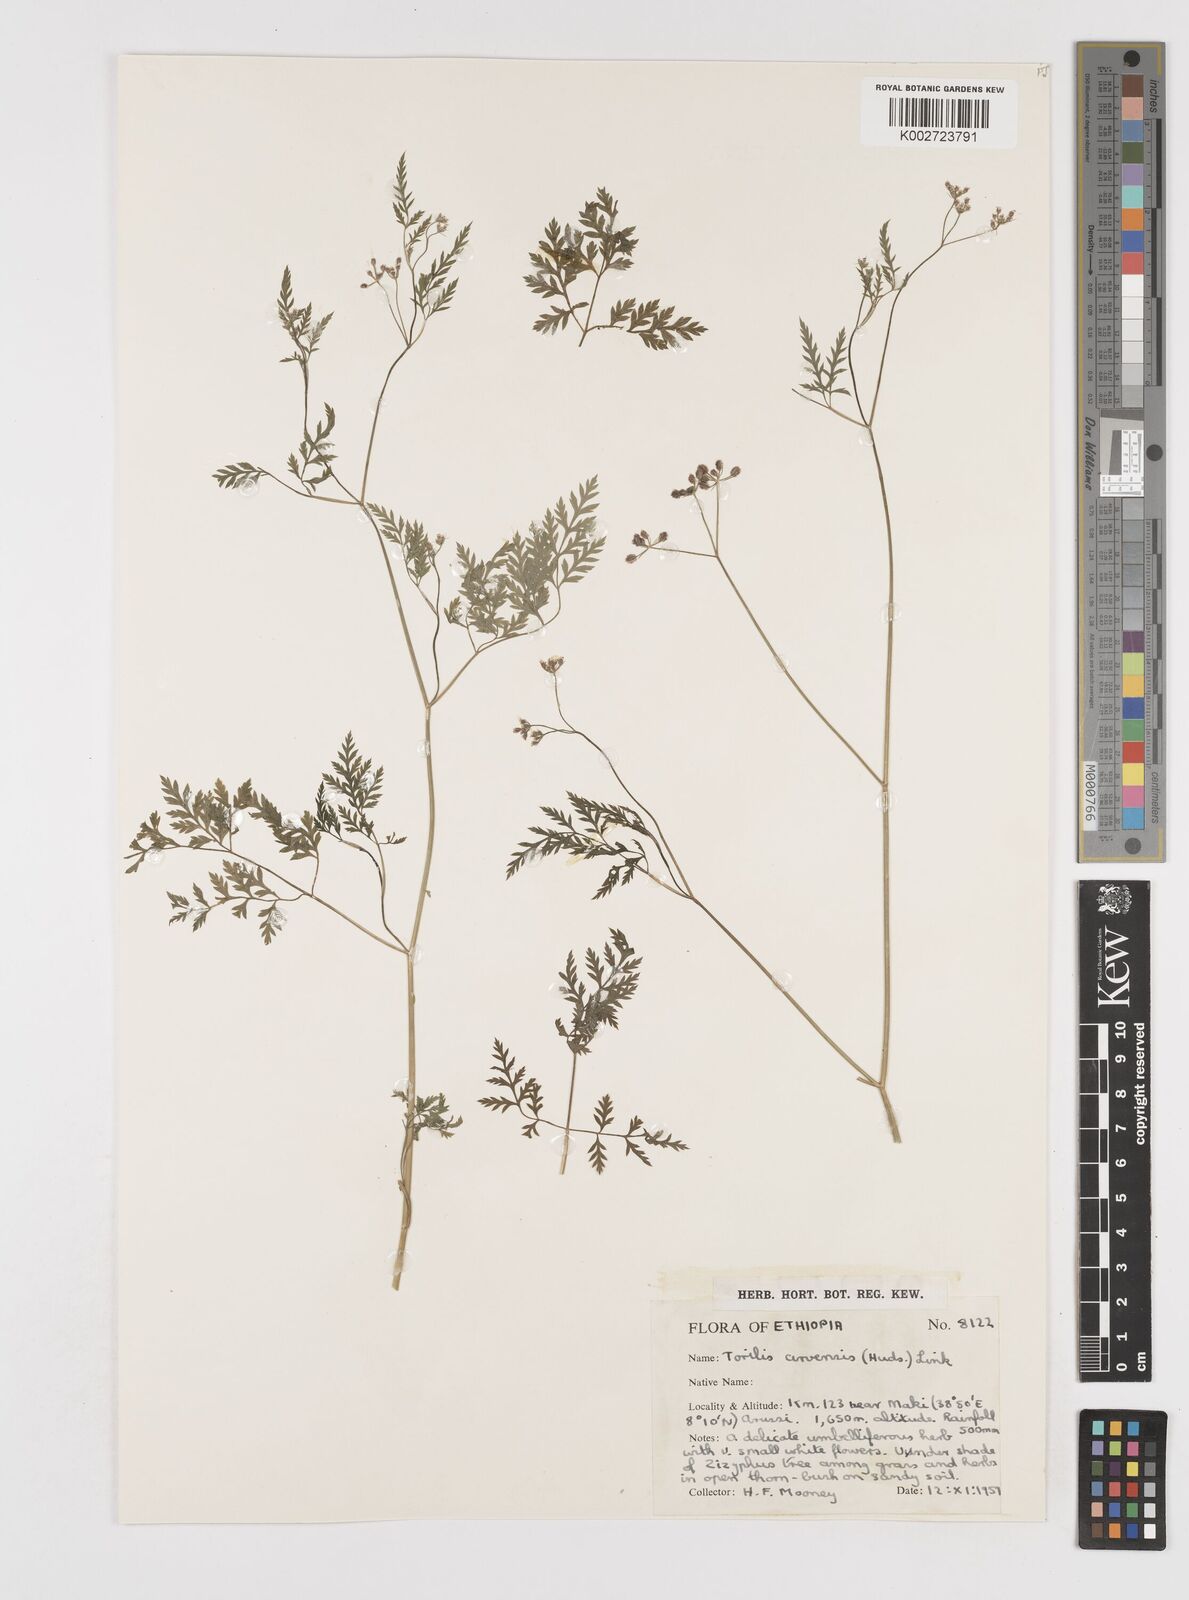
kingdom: Plantae
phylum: Tracheophyta
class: Magnoliopsida
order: Apiales
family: Apiaceae
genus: Torilis
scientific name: Torilis arvensis
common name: Spreading hedge-parsley
